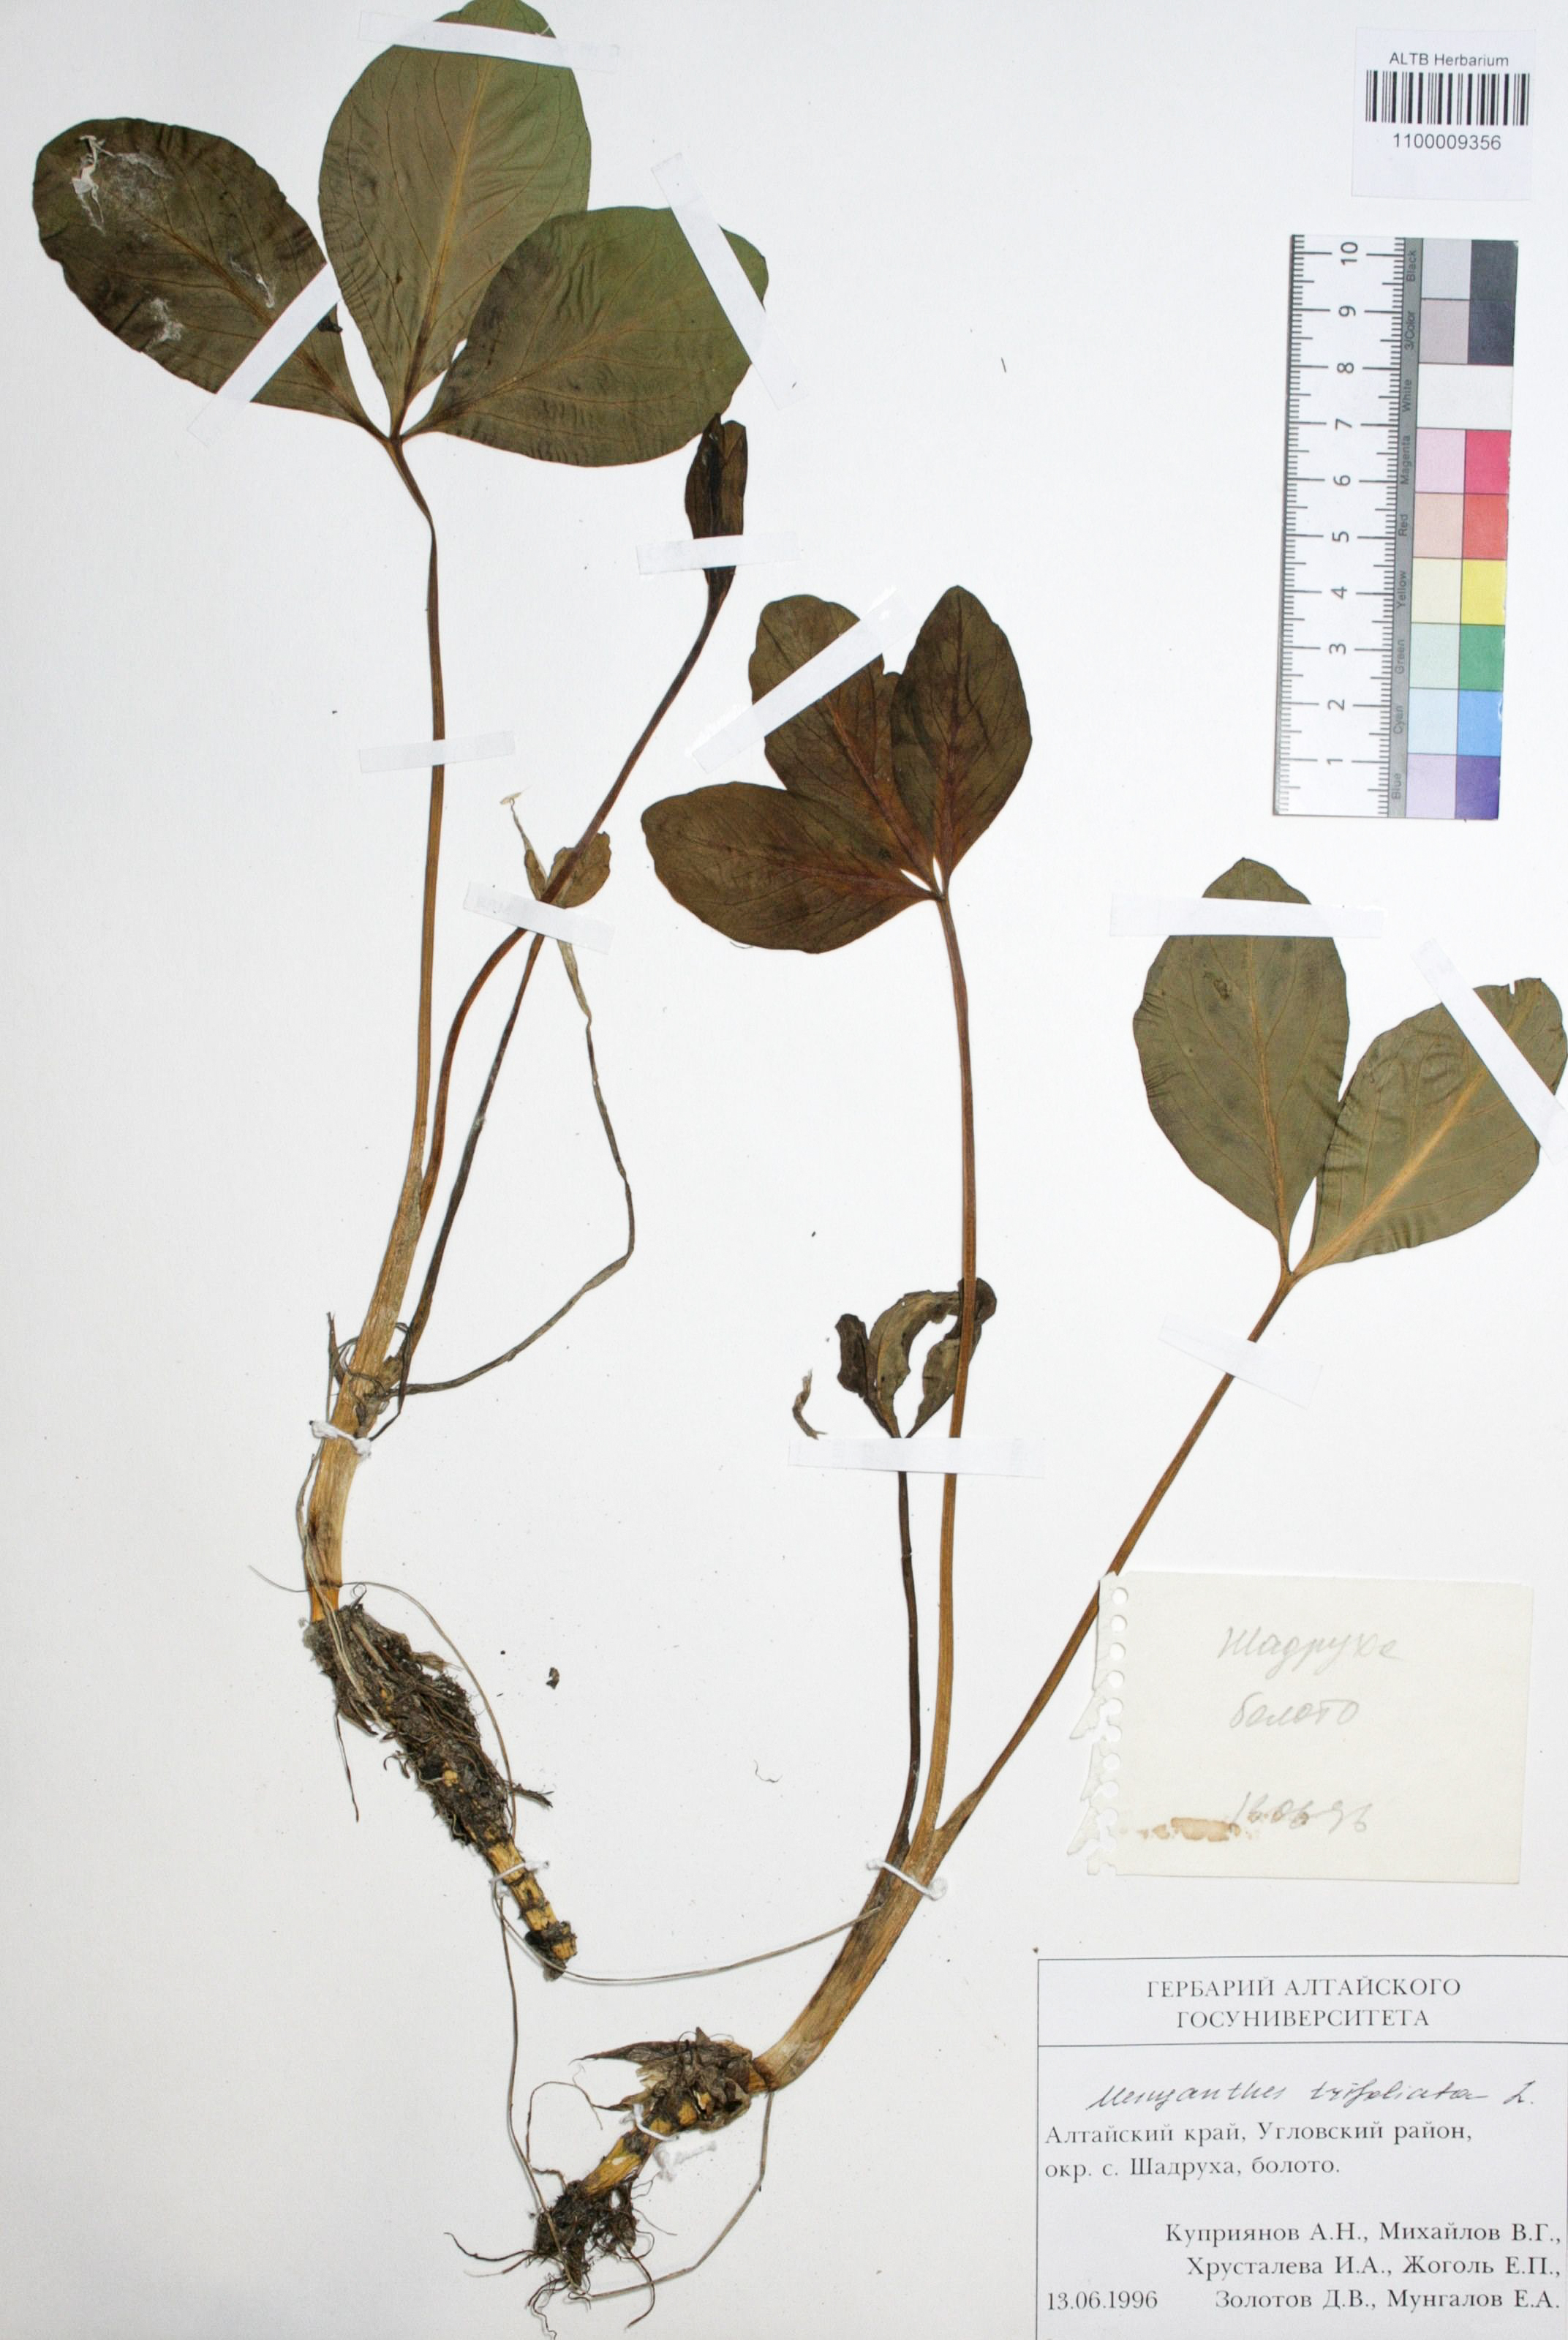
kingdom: Plantae
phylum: Tracheophyta
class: Magnoliopsida
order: Asterales
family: Menyanthaceae
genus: Menyanthes
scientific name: Menyanthes trifoliata
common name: Bogbean
